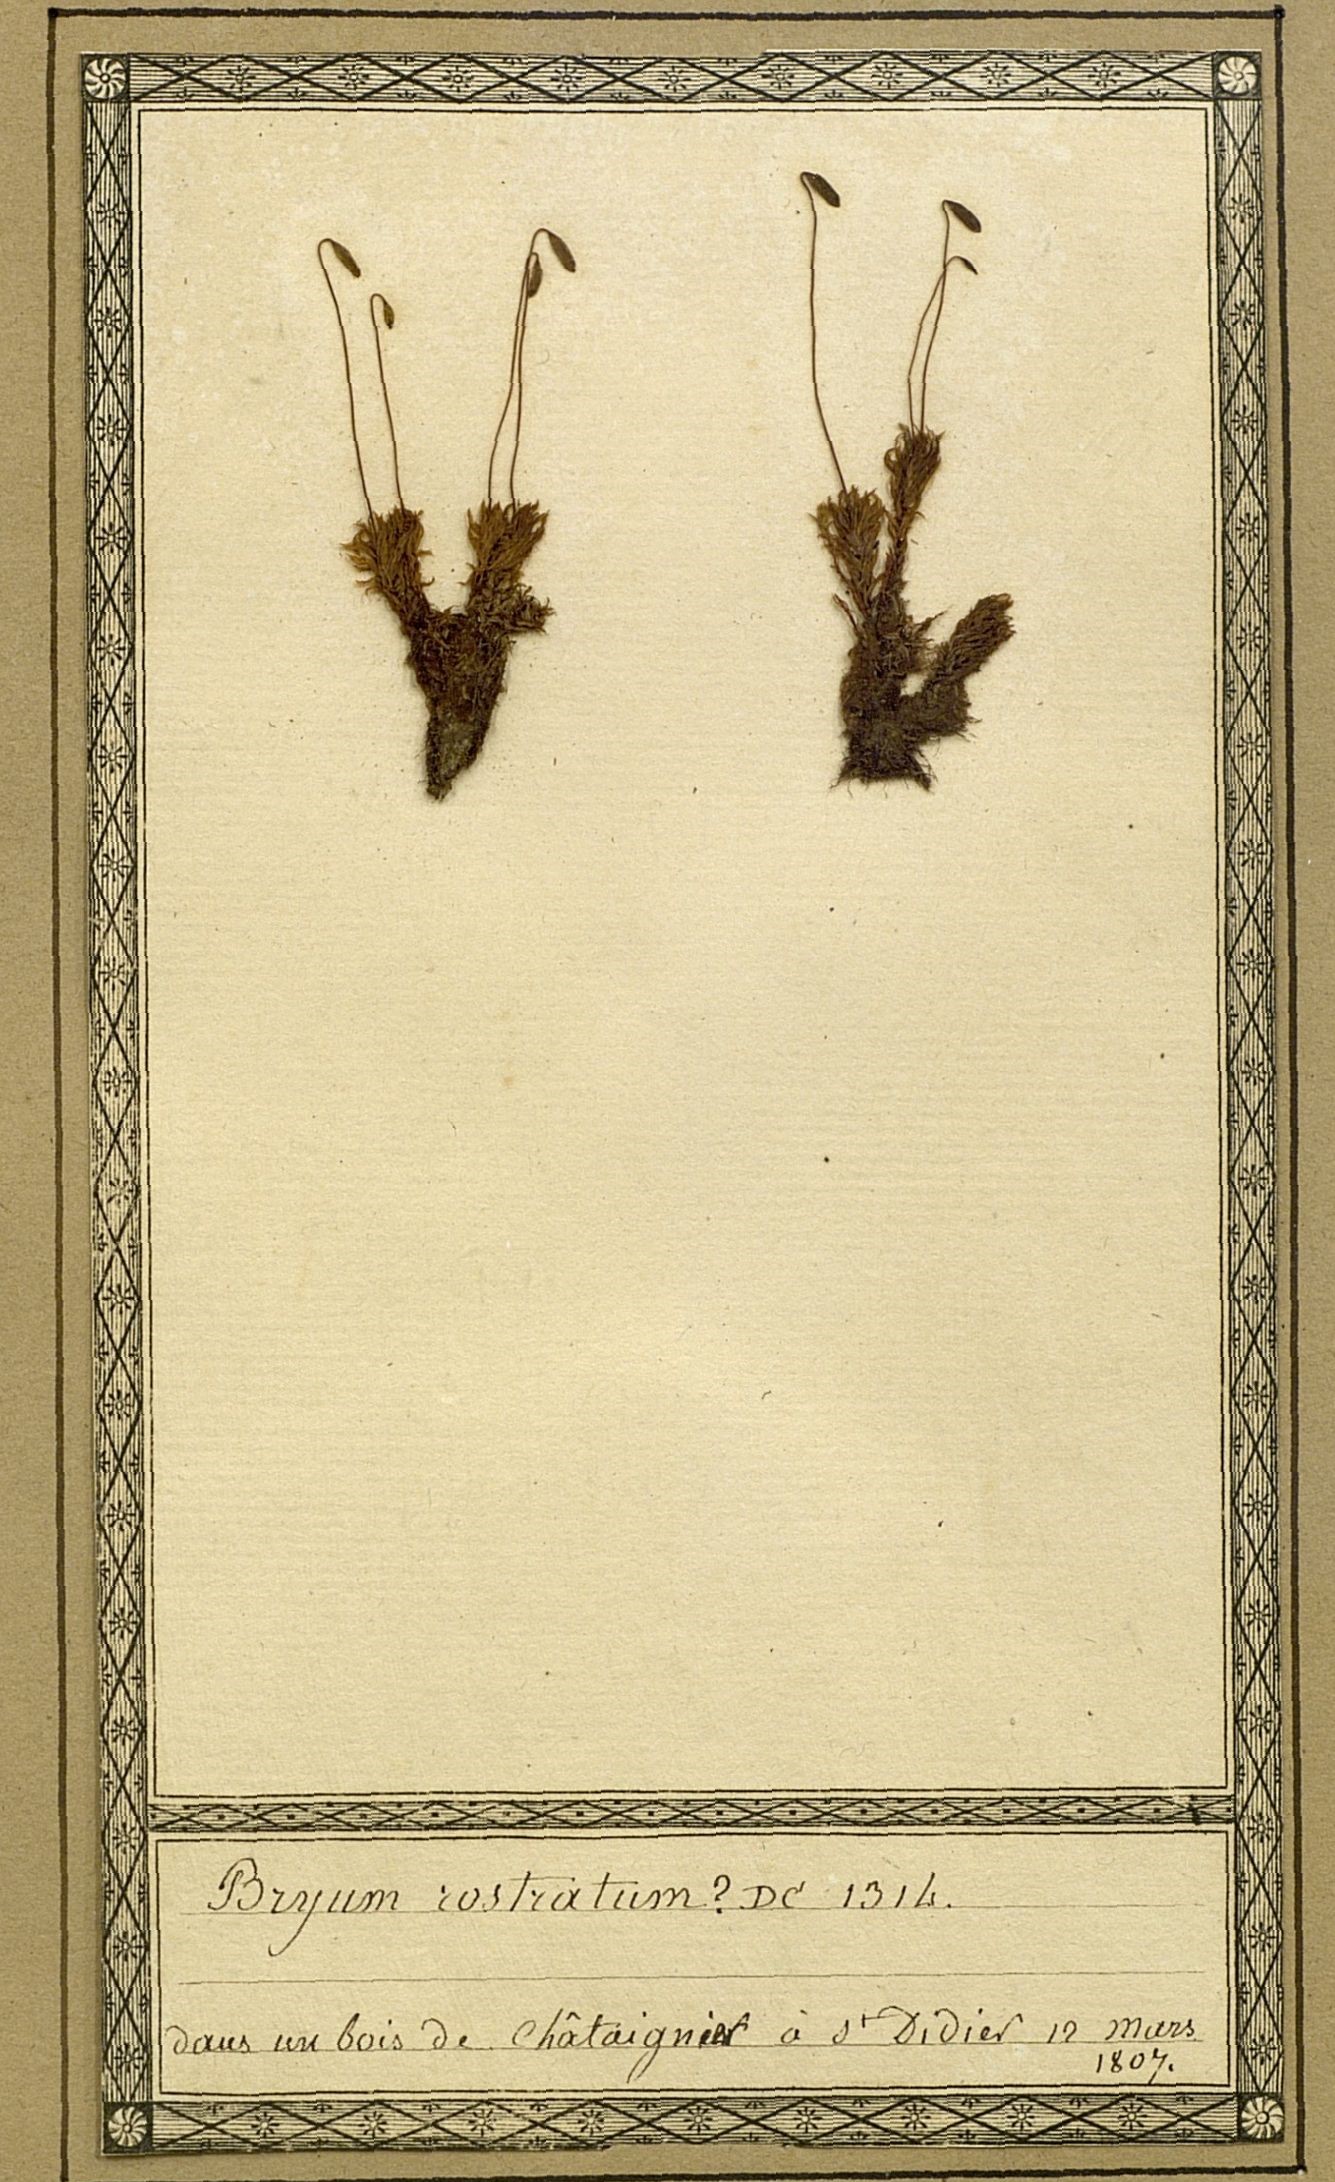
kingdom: Plantae
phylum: Bryophyta
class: Bryopsida
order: Bryales
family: Bryaceae
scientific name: Bryaceae
